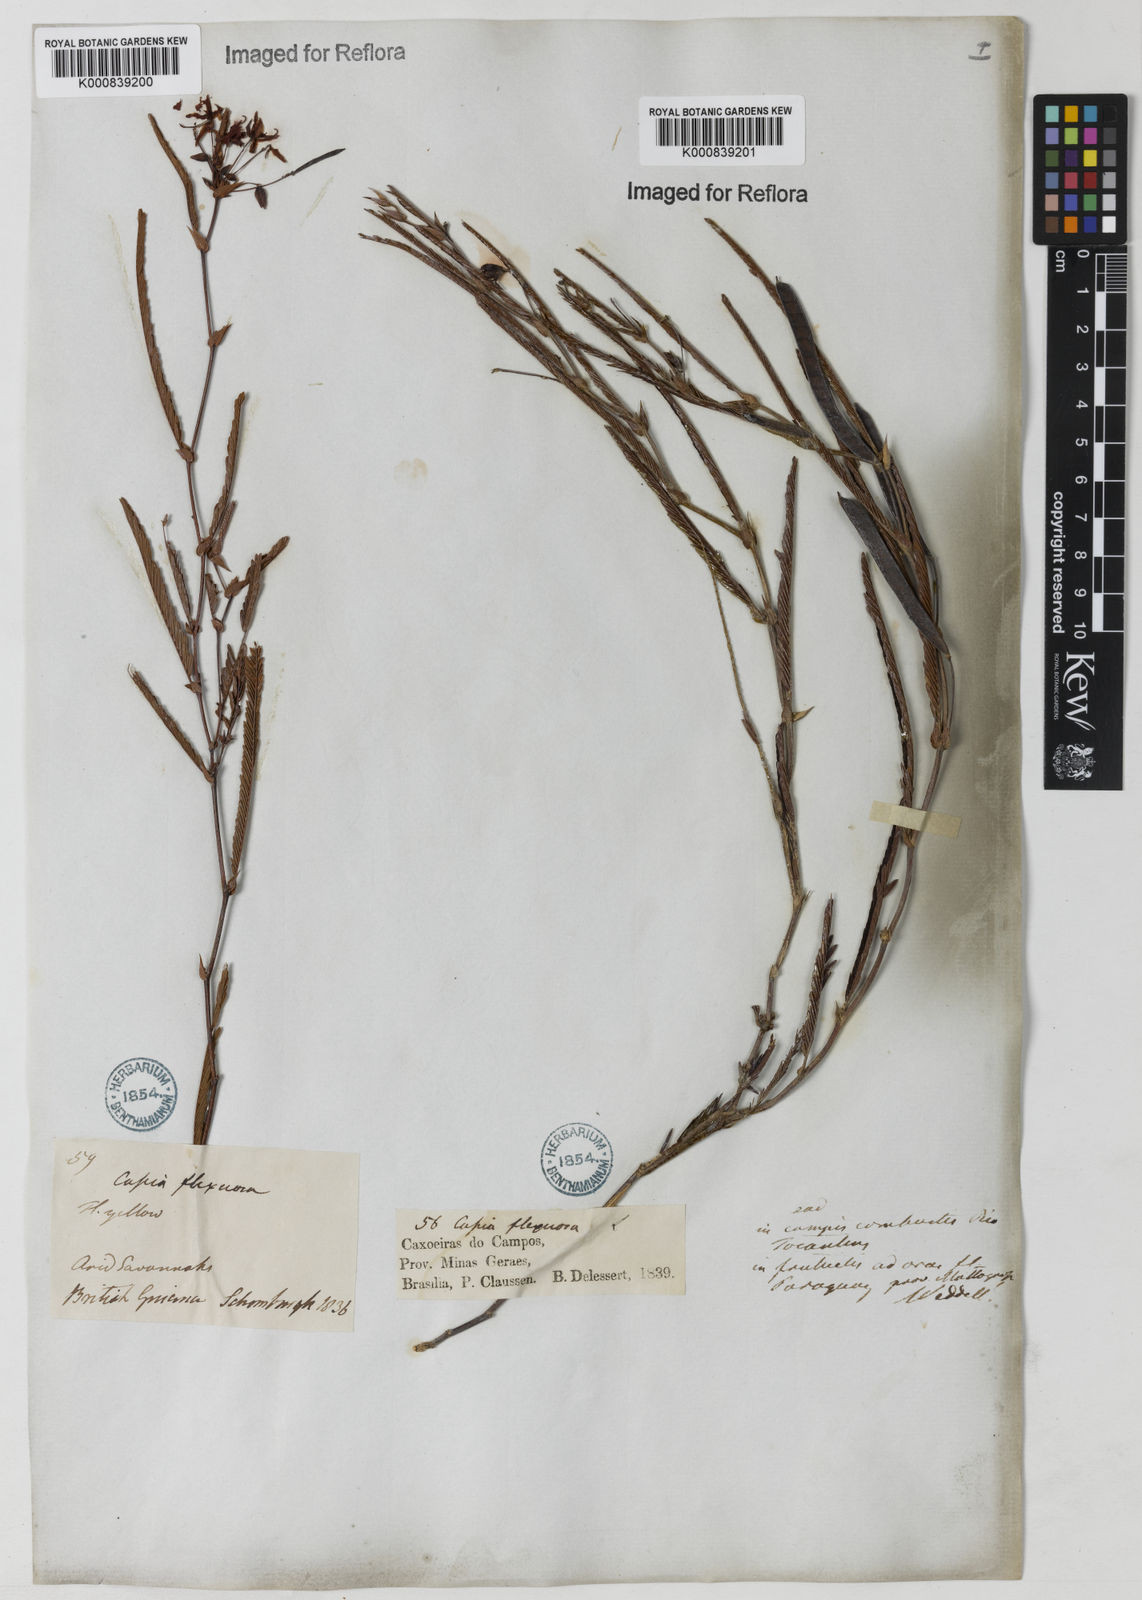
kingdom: Plantae
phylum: Tracheophyta
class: Magnoliopsida
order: Fabales
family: Fabaceae
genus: Chamaecrista
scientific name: Chamaecrista flexuosa
